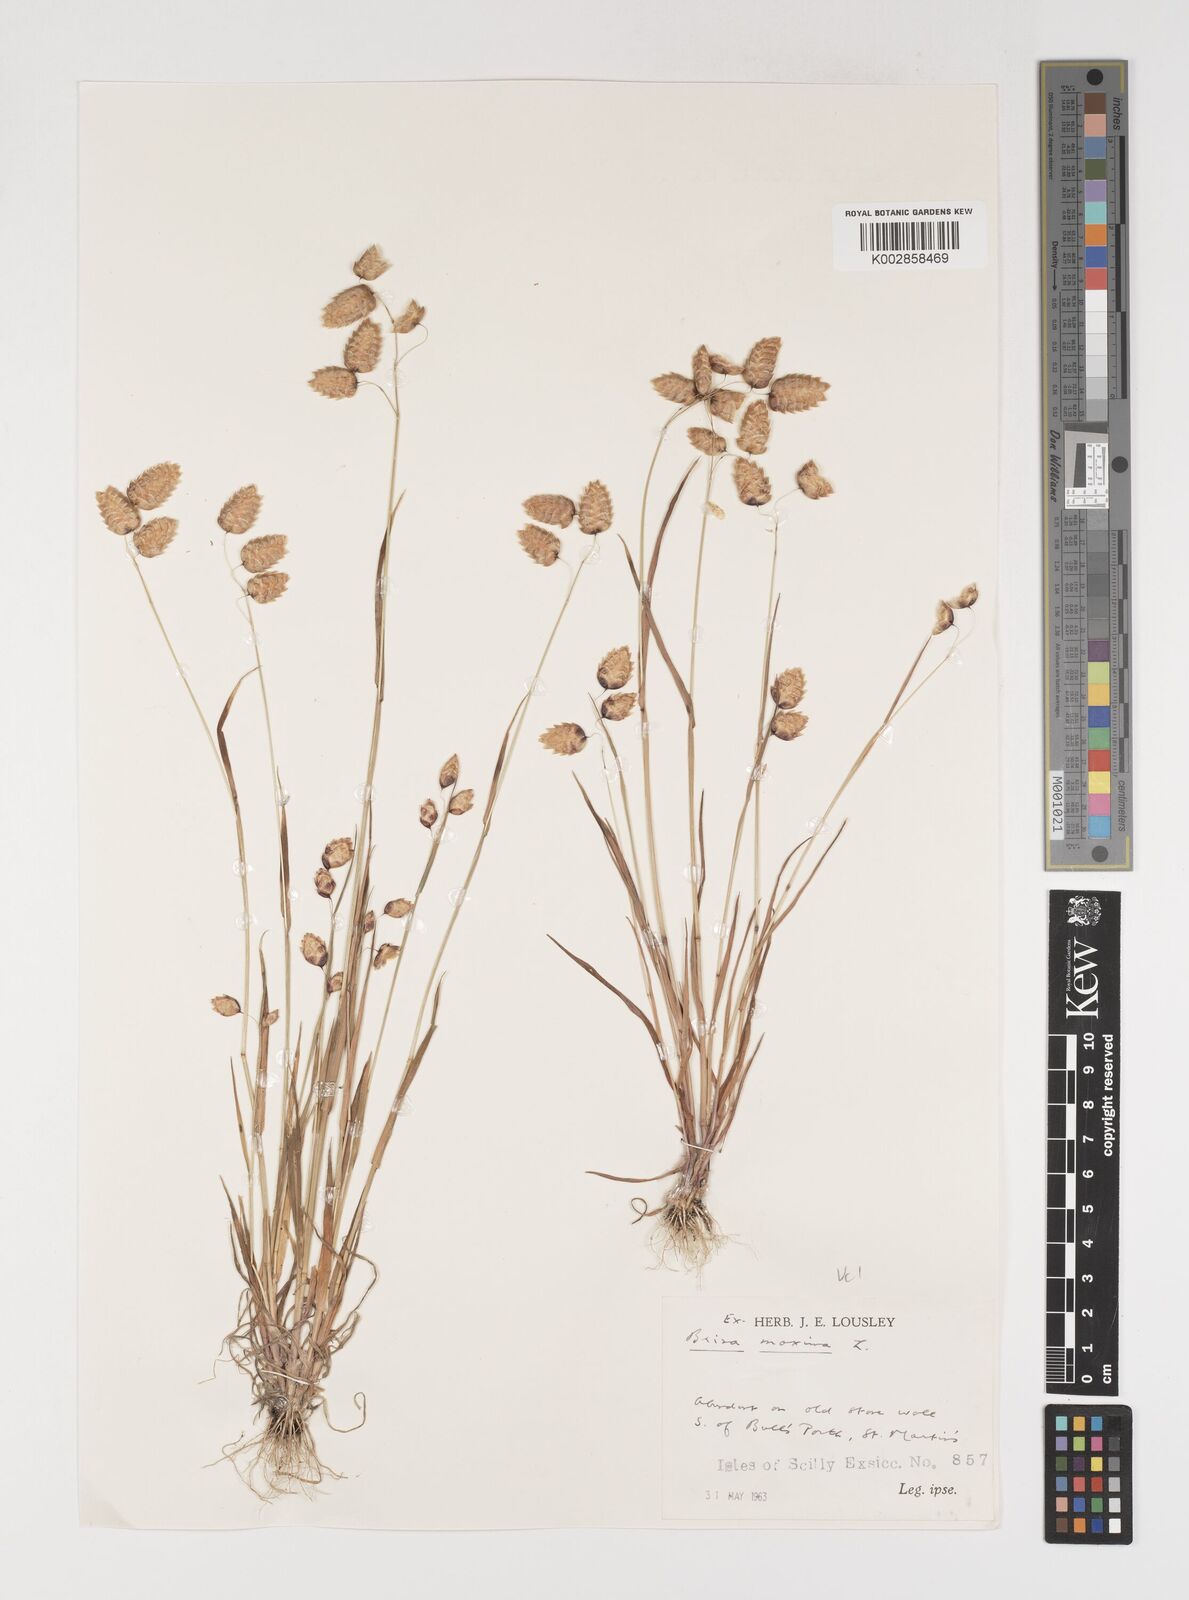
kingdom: Plantae
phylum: Tracheophyta
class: Liliopsida
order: Poales
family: Poaceae
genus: Briza
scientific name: Briza maxima
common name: Big quakinggrass
